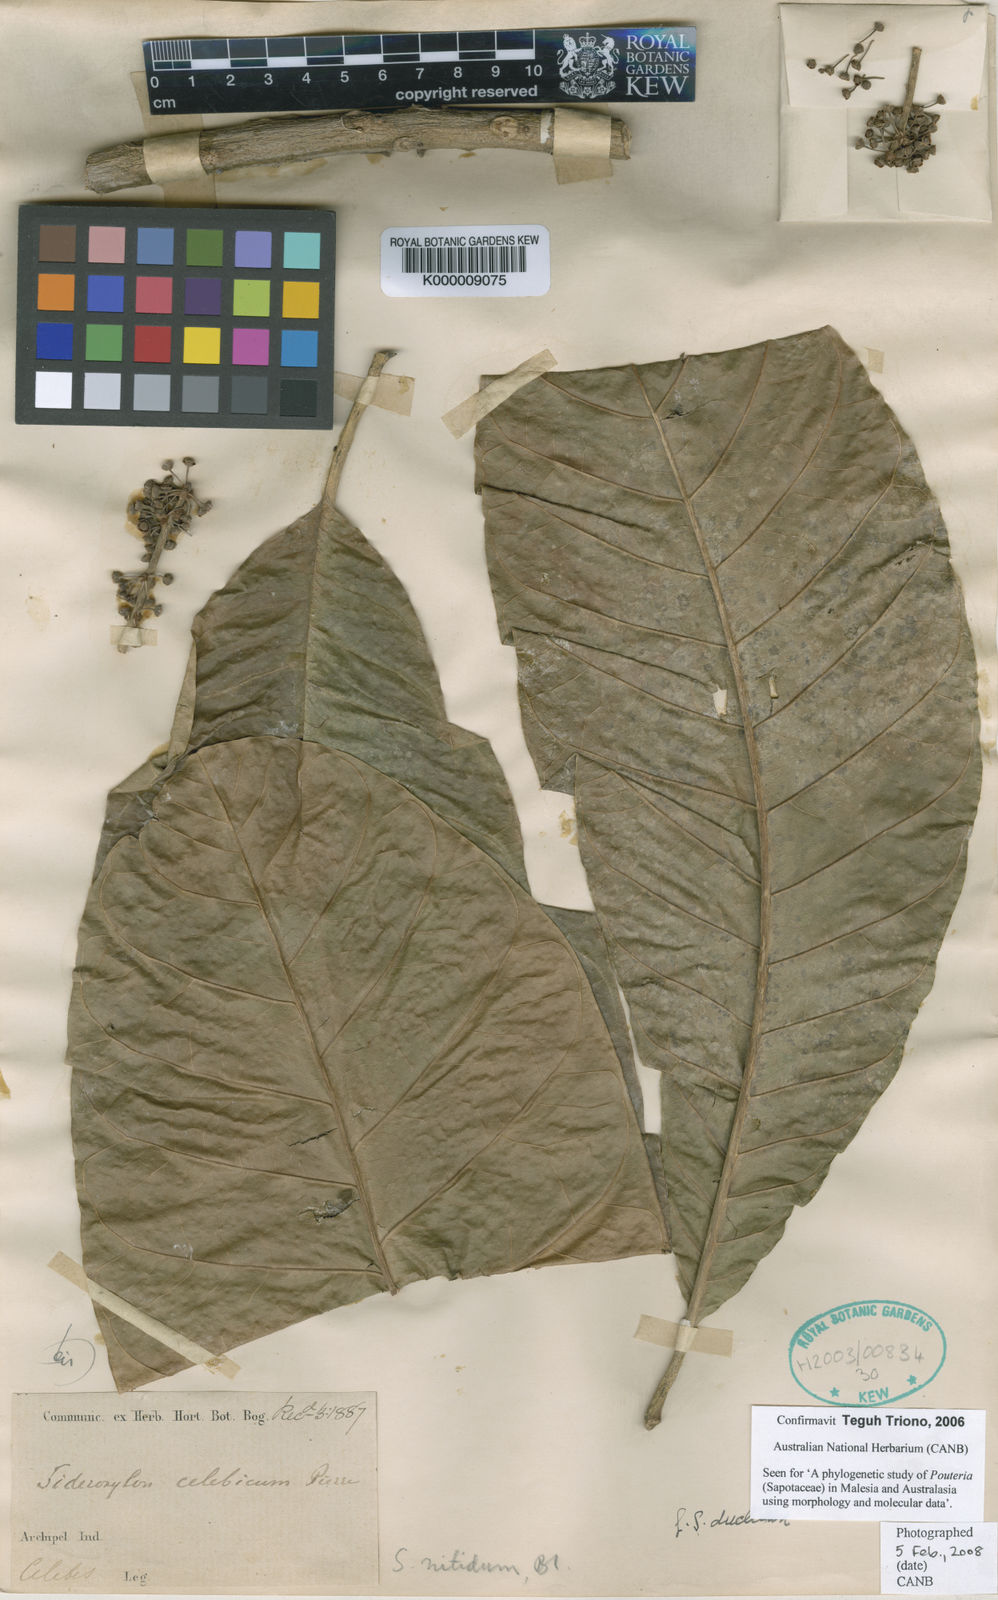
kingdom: Plantae
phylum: Tracheophyta
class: Magnoliopsida
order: Ericales
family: Sapotaceae
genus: Planchonella
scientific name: Planchonella duclitan
